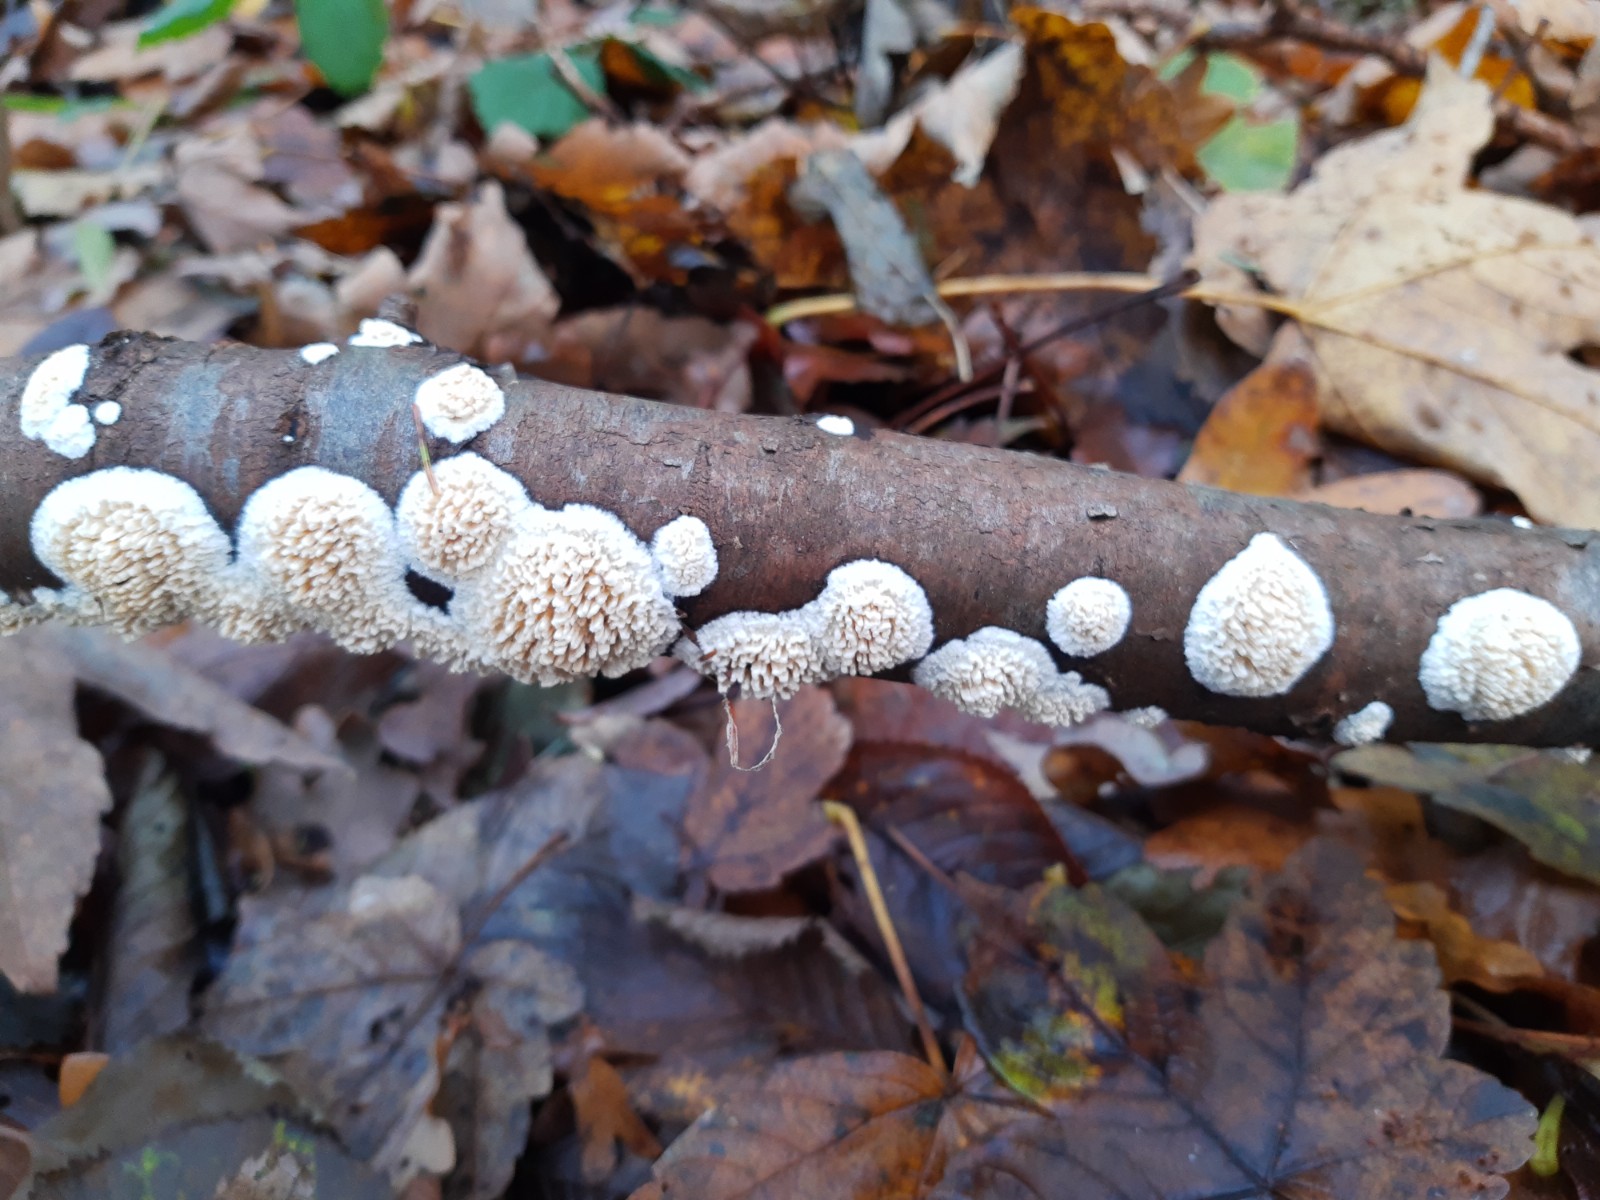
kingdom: Fungi
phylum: Basidiomycota
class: Agaricomycetes
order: Hymenochaetales
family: Schizoporaceae
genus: Xylodon
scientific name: Xylodon radula
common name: grovtandet kalkskind
